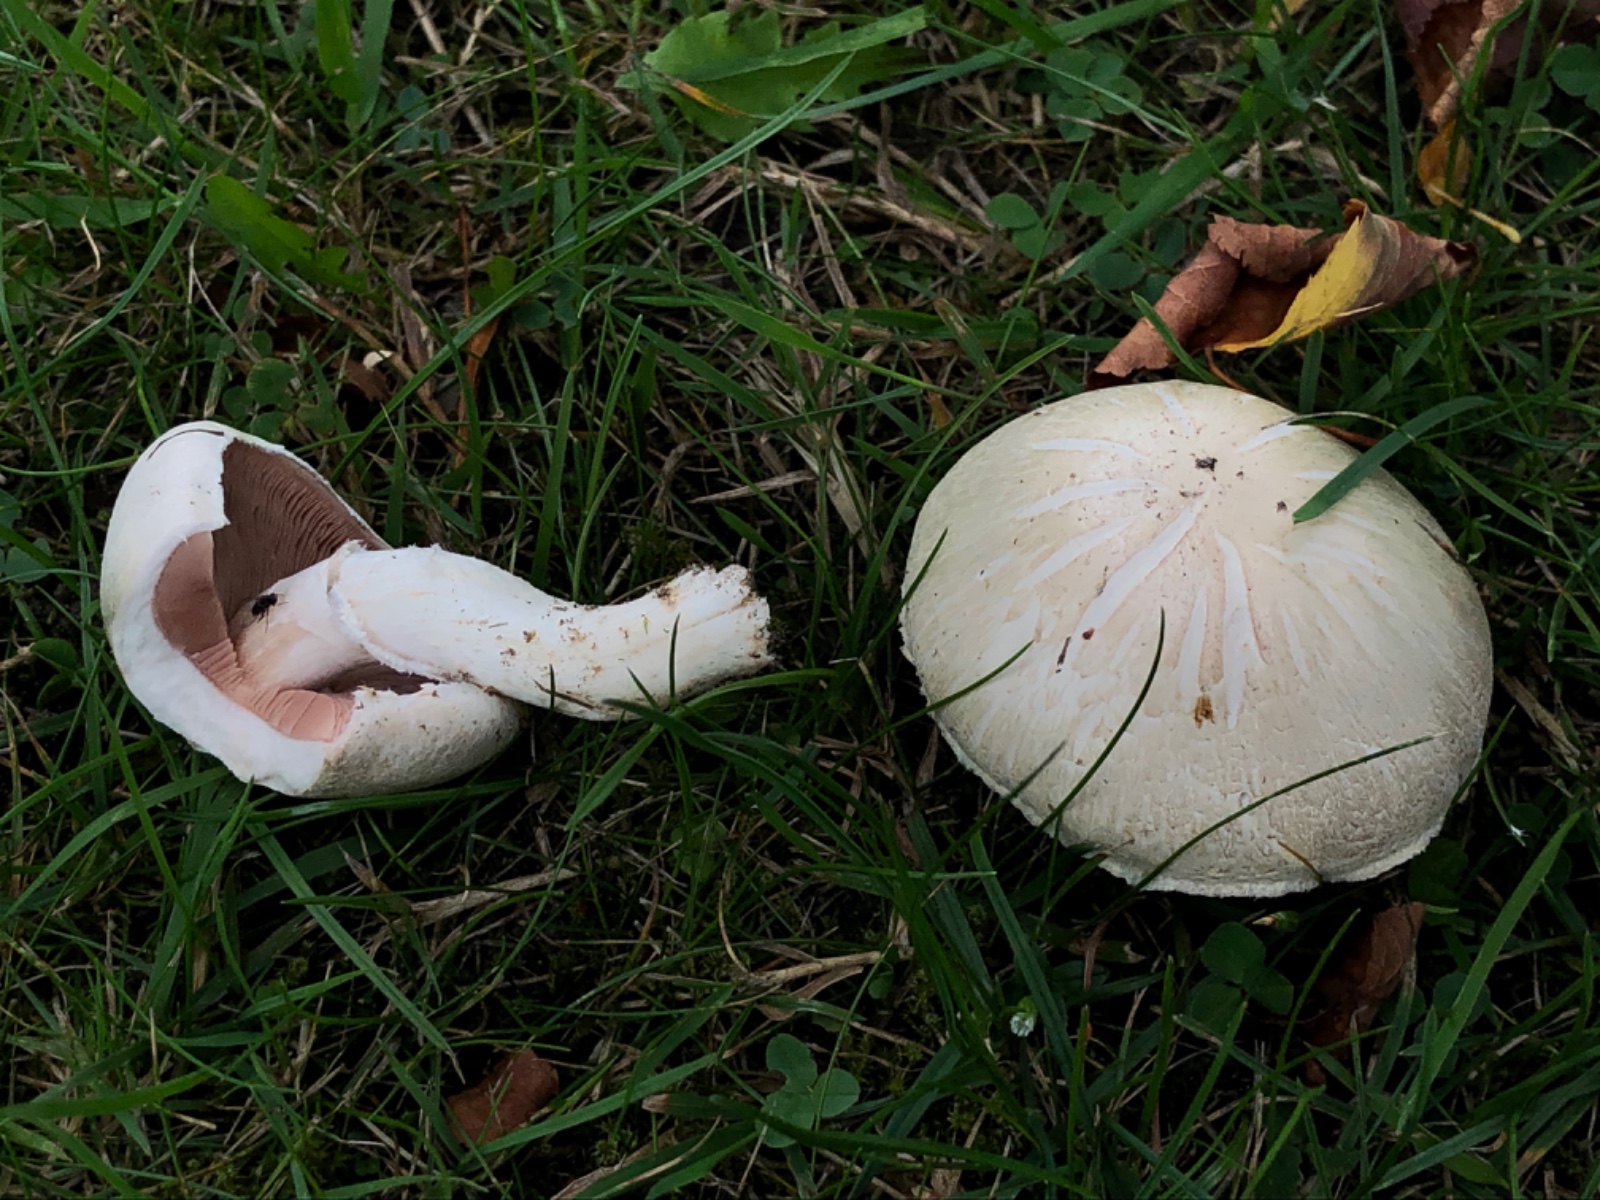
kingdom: Fungi
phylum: Basidiomycota
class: Agaricomycetes
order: Agaricales
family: Agaricaceae
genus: Agaricus
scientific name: Agaricus campestris
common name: mark-champignon
